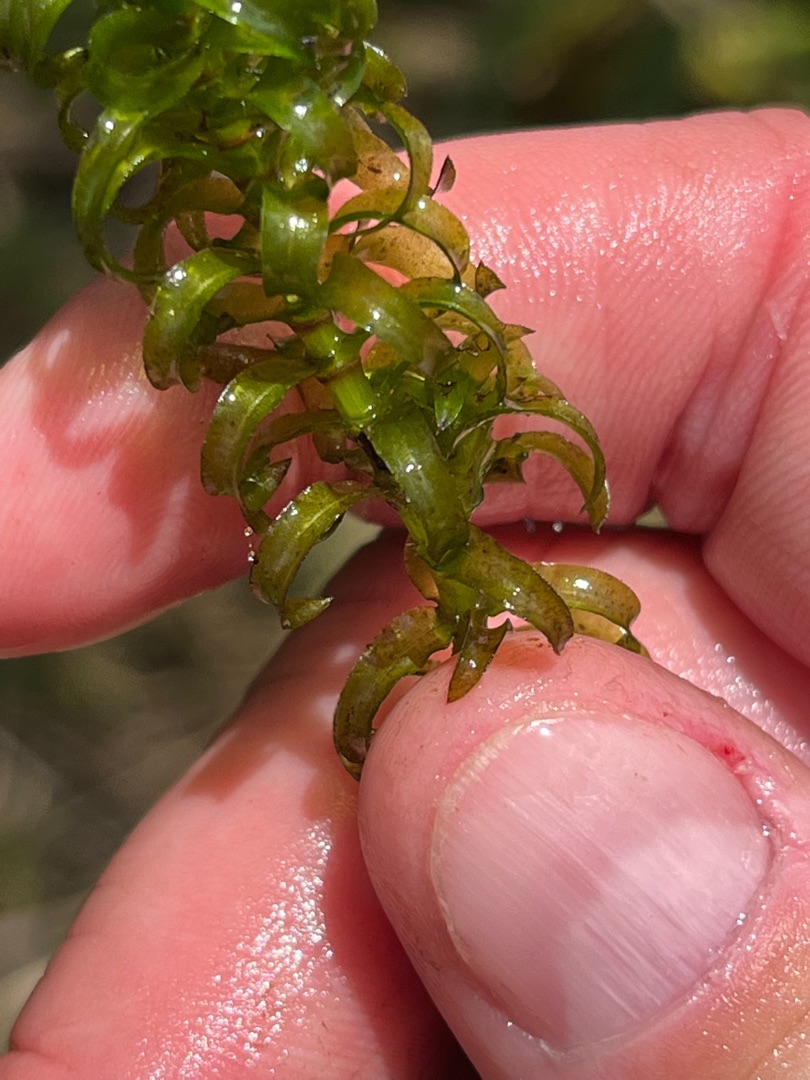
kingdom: Plantae
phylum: Tracheophyta
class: Liliopsida
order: Alismatales
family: Hydrocharitaceae
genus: Elodea
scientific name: Elodea nuttallii
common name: Smalbladet vandpest
